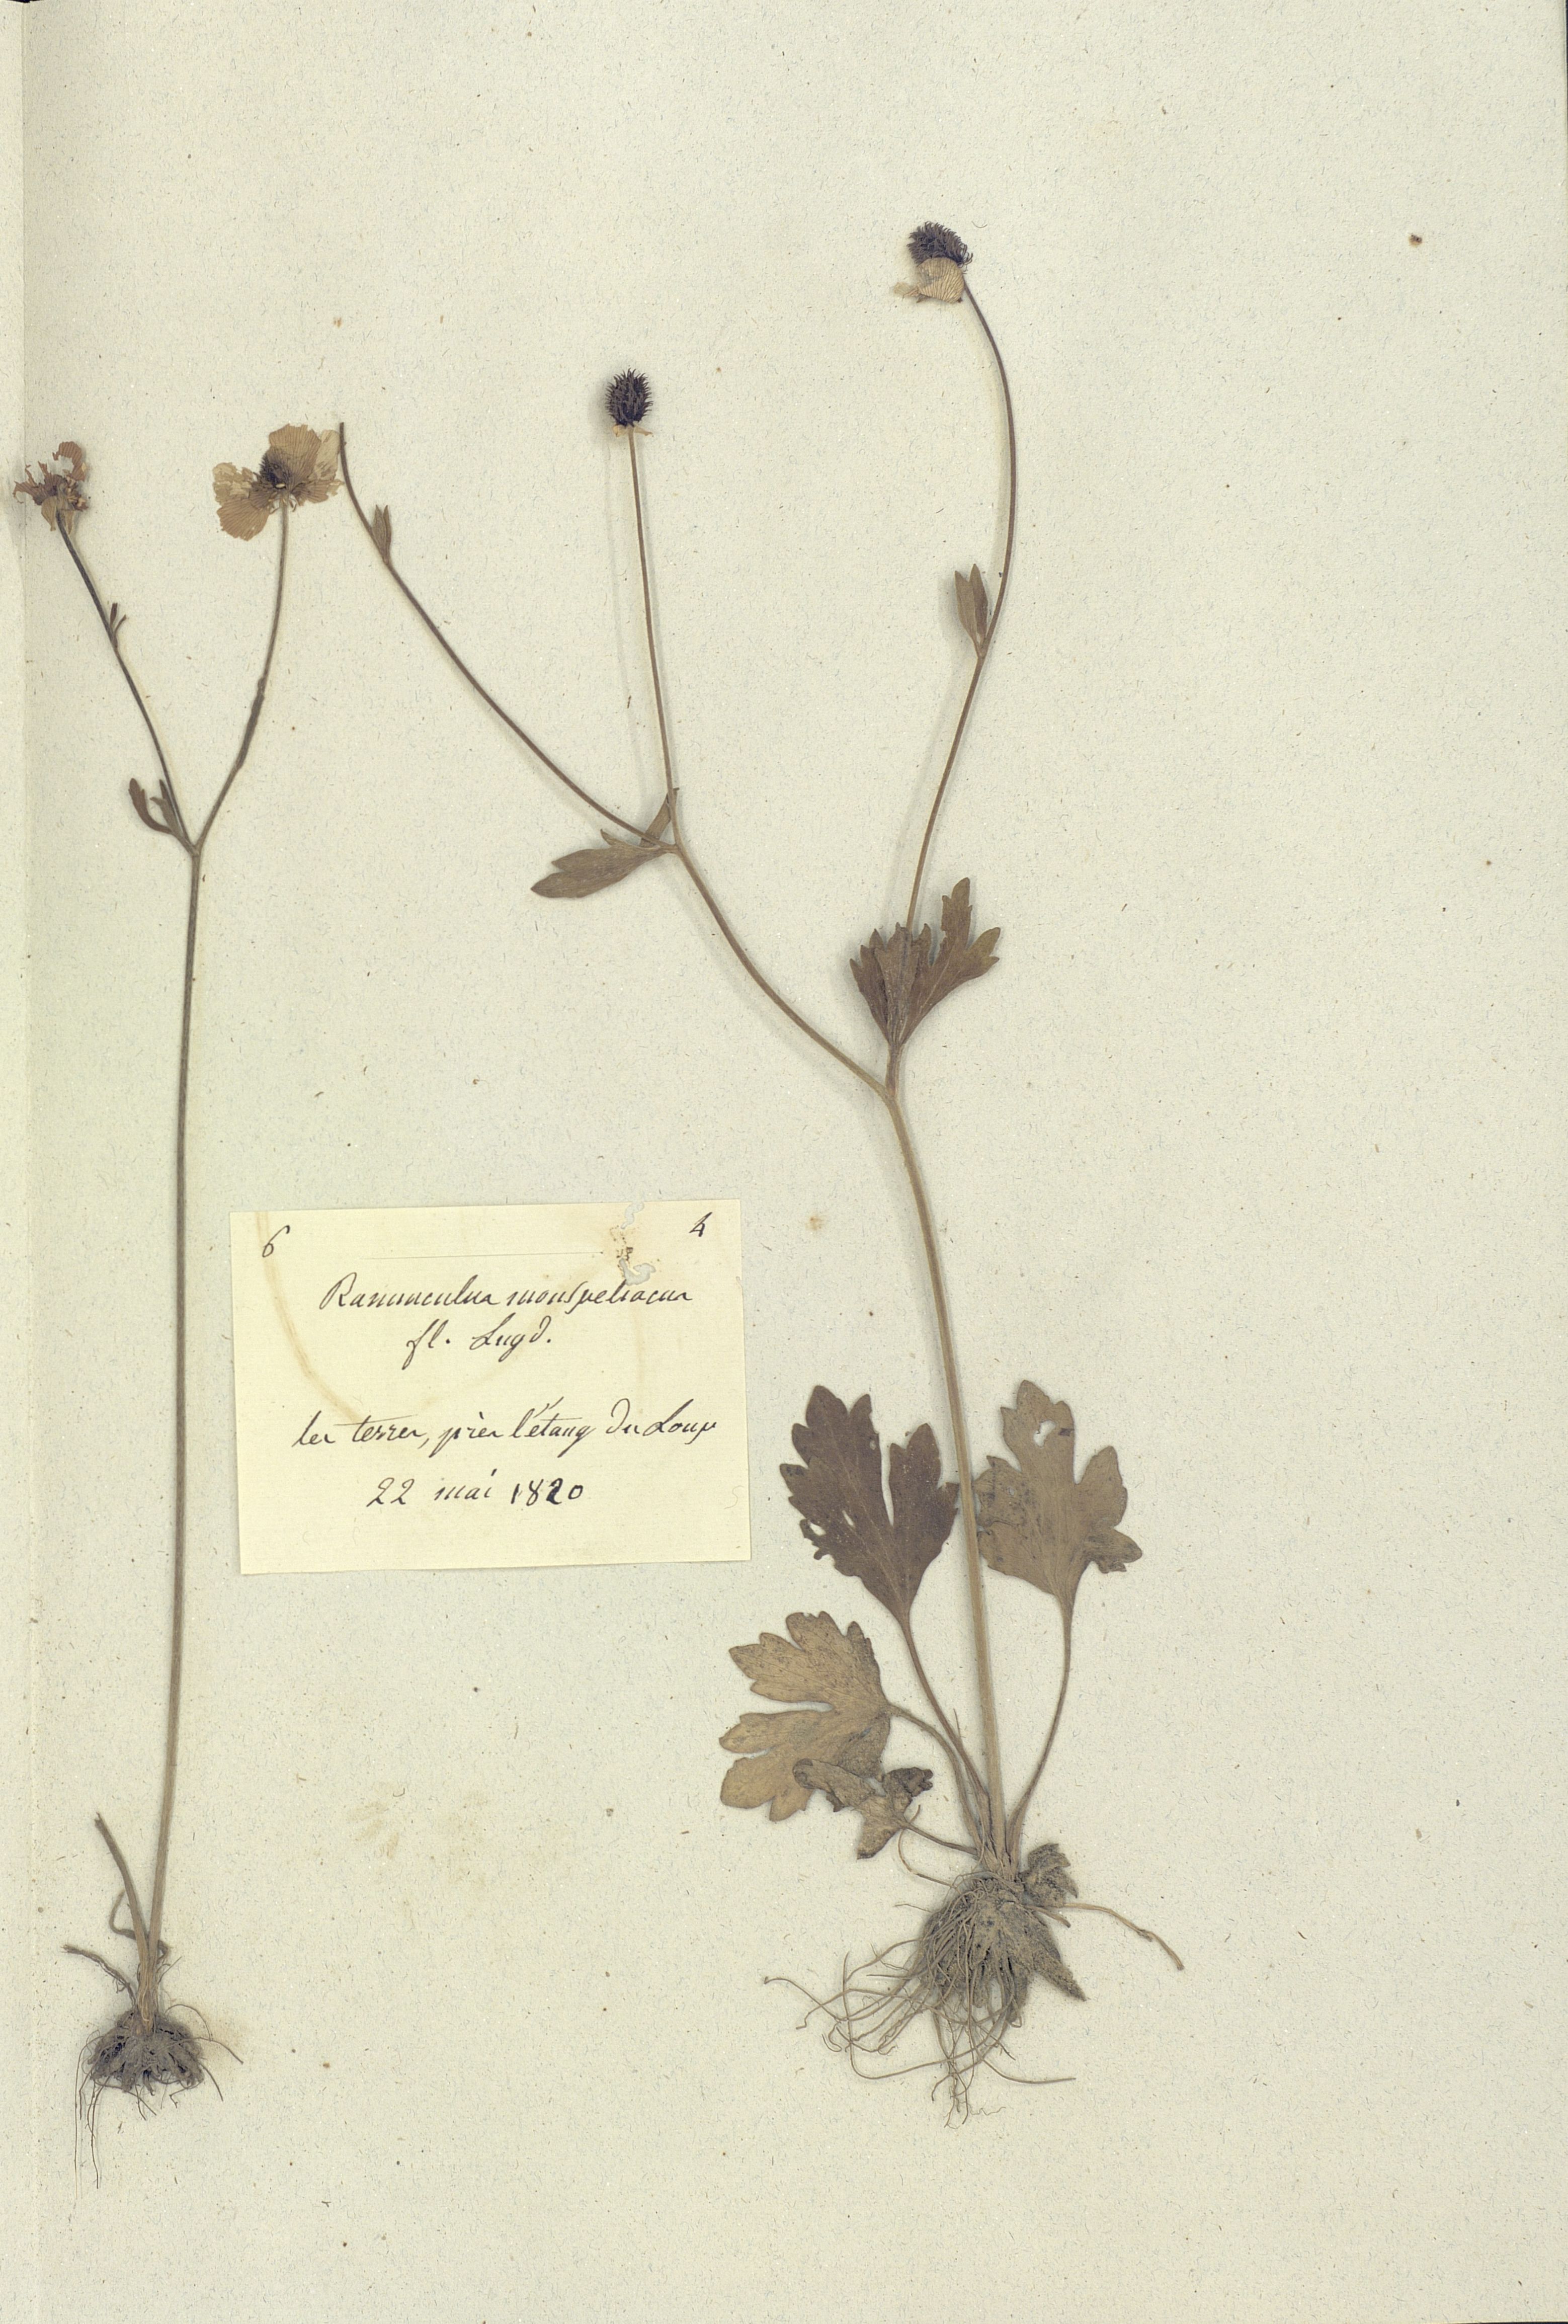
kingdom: Plantae
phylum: Tracheophyta
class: Magnoliopsida
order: Ranunculales
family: Ranunculaceae
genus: Ranunculus
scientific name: Ranunculus monspeliacus
